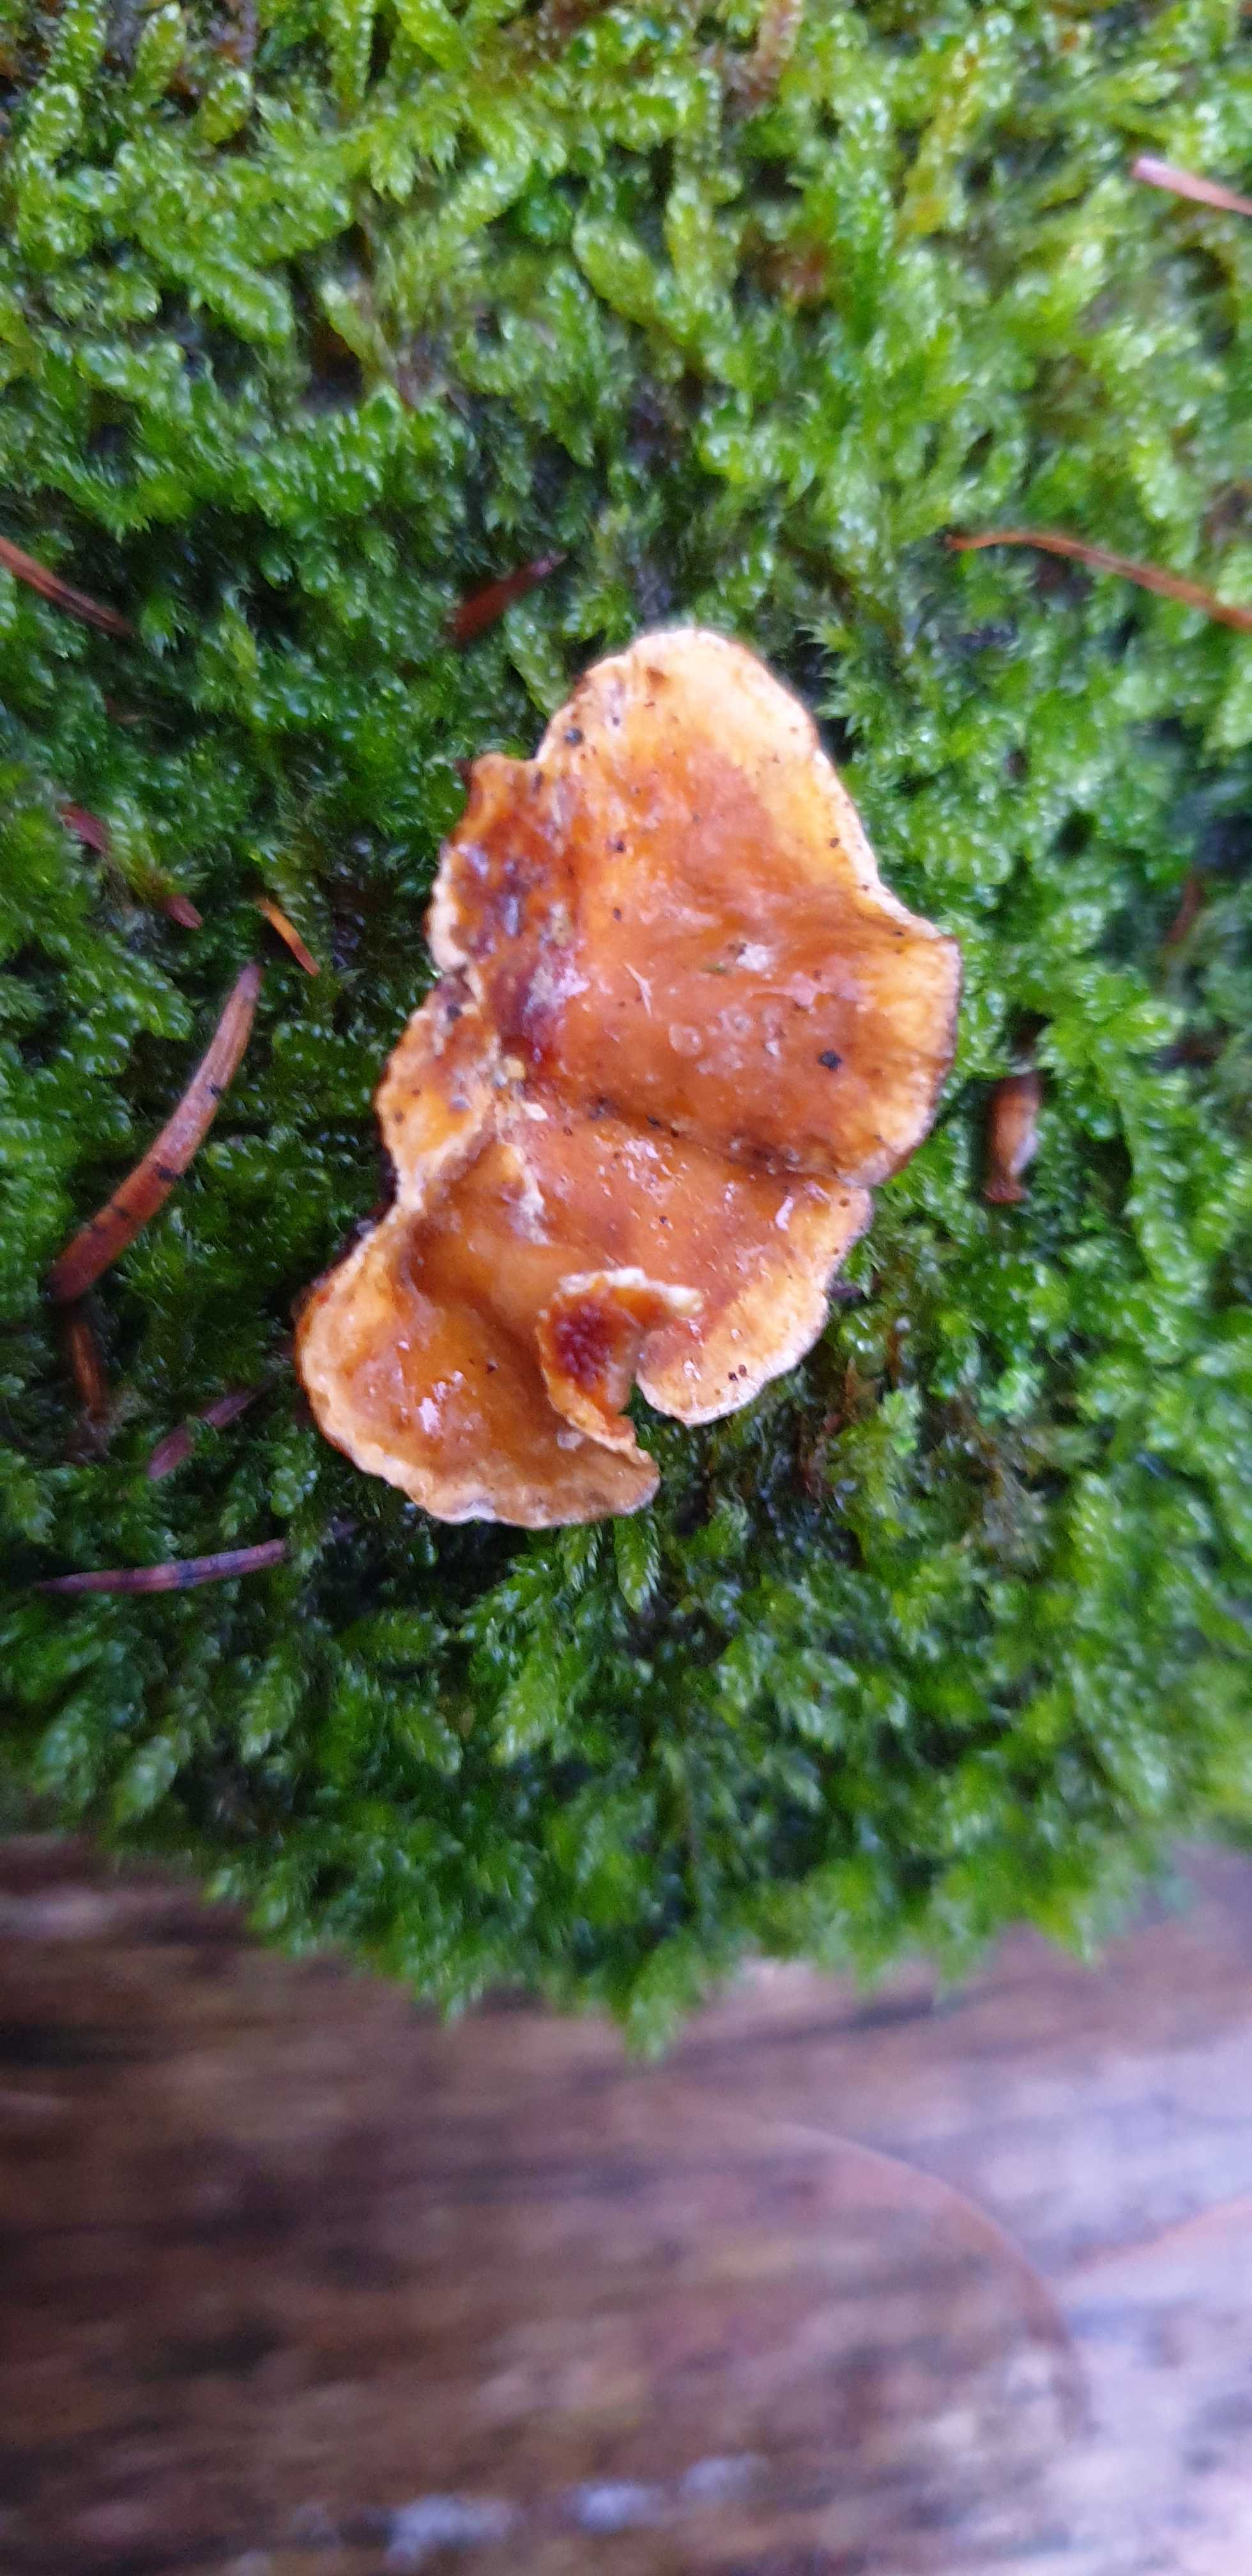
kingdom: Fungi
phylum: Basidiomycota
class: Agaricomycetes
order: Russulales
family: Stereaceae
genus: Stereum
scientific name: Stereum hirsutum
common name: håret lædersvamp
